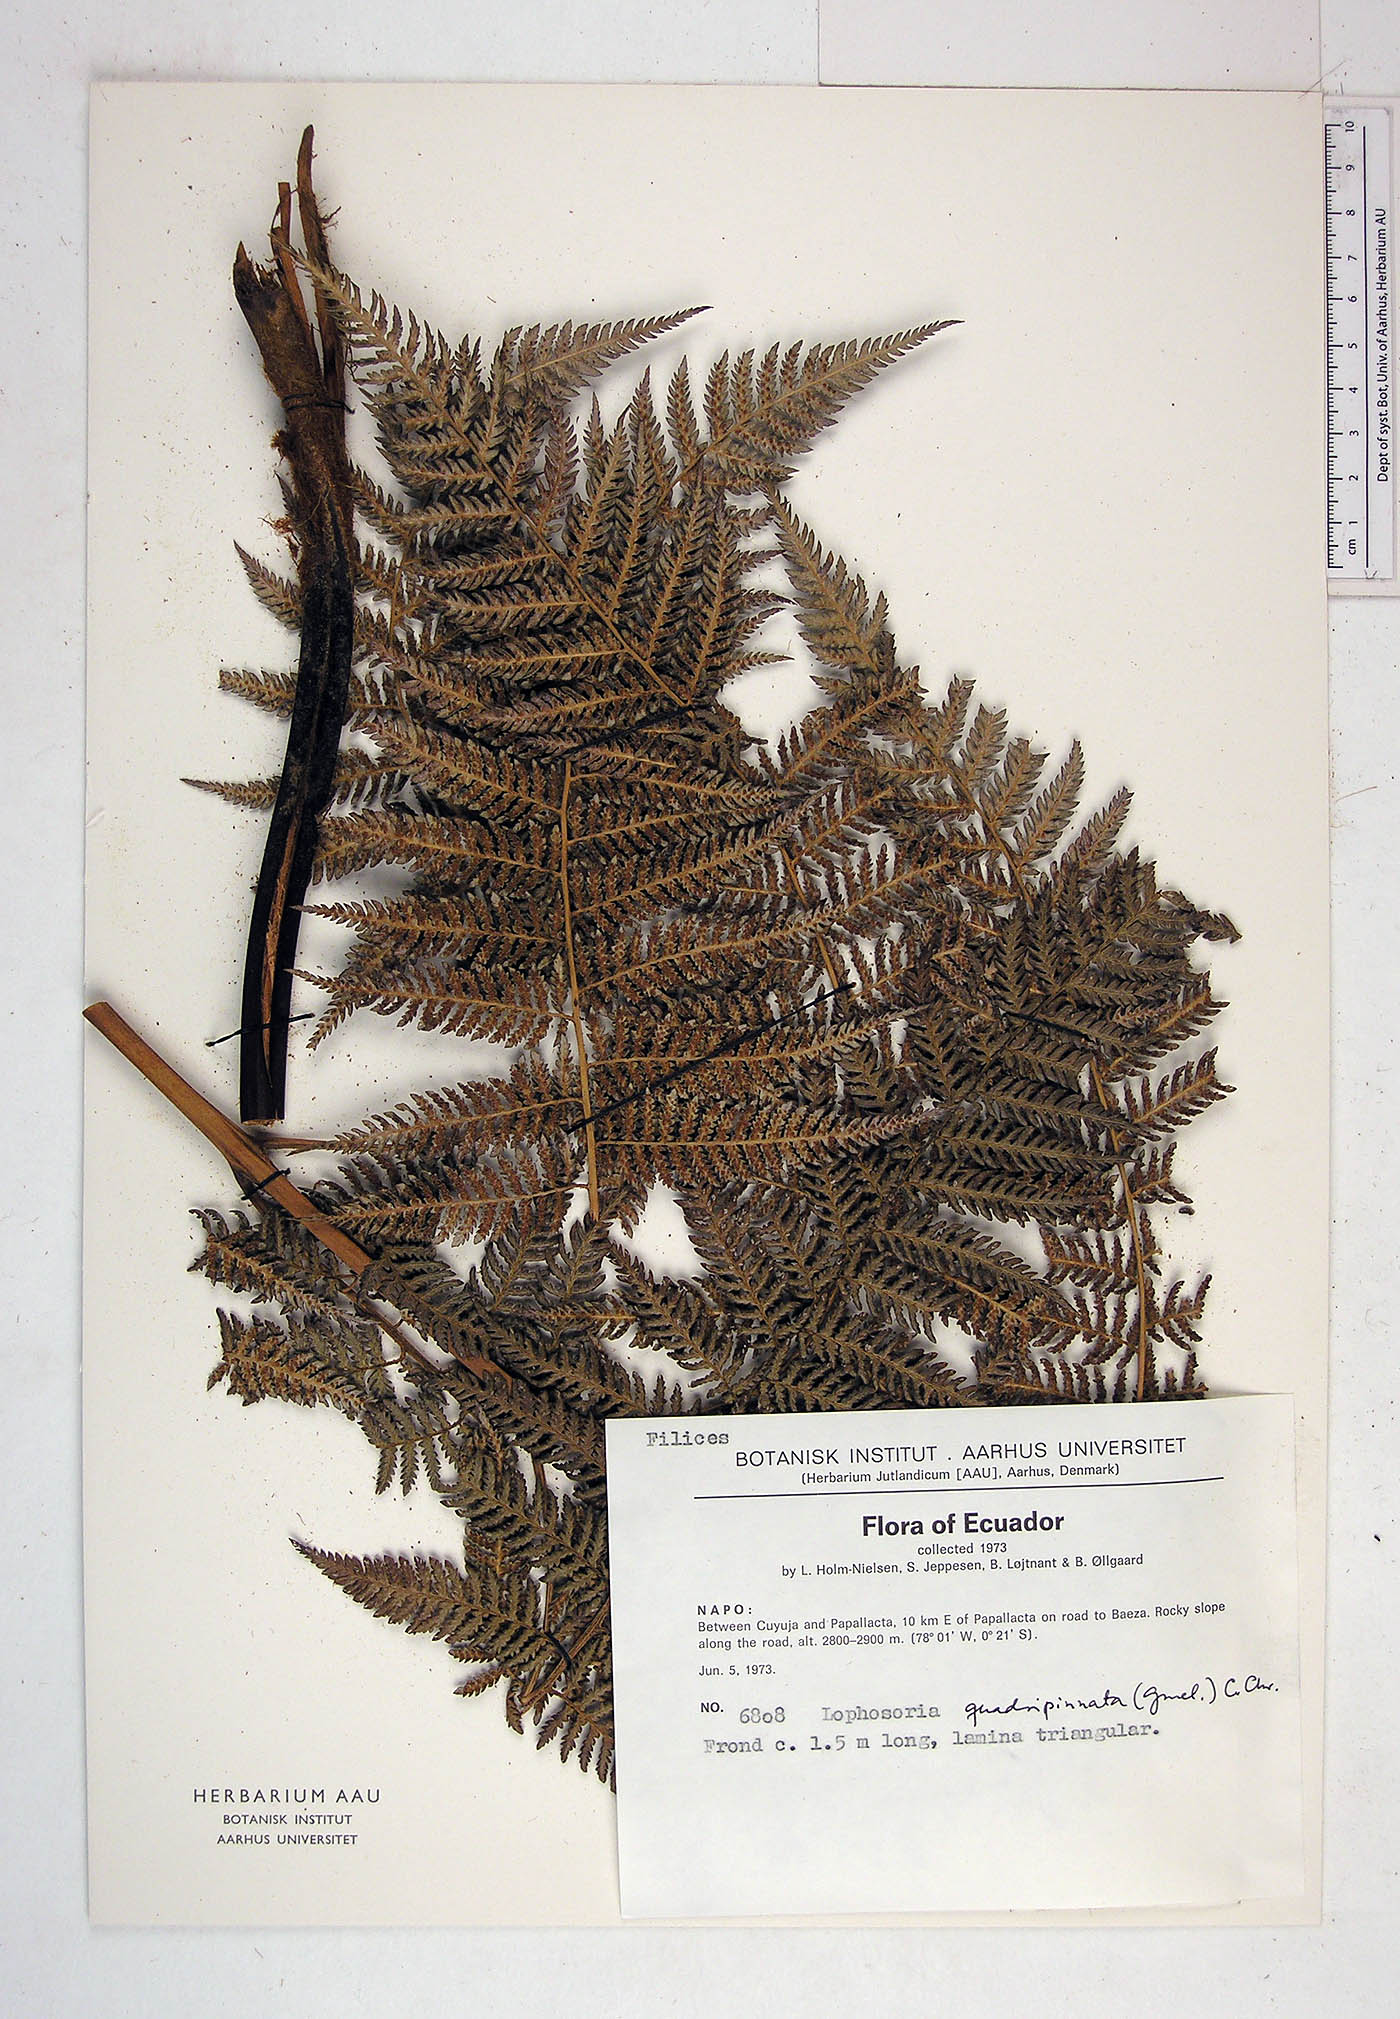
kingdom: Plantae
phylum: Tracheophyta
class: Polypodiopsida
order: Cyatheales
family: Dicksoniaceae
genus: Lophosoria
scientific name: Lophosoria quadripinnata
